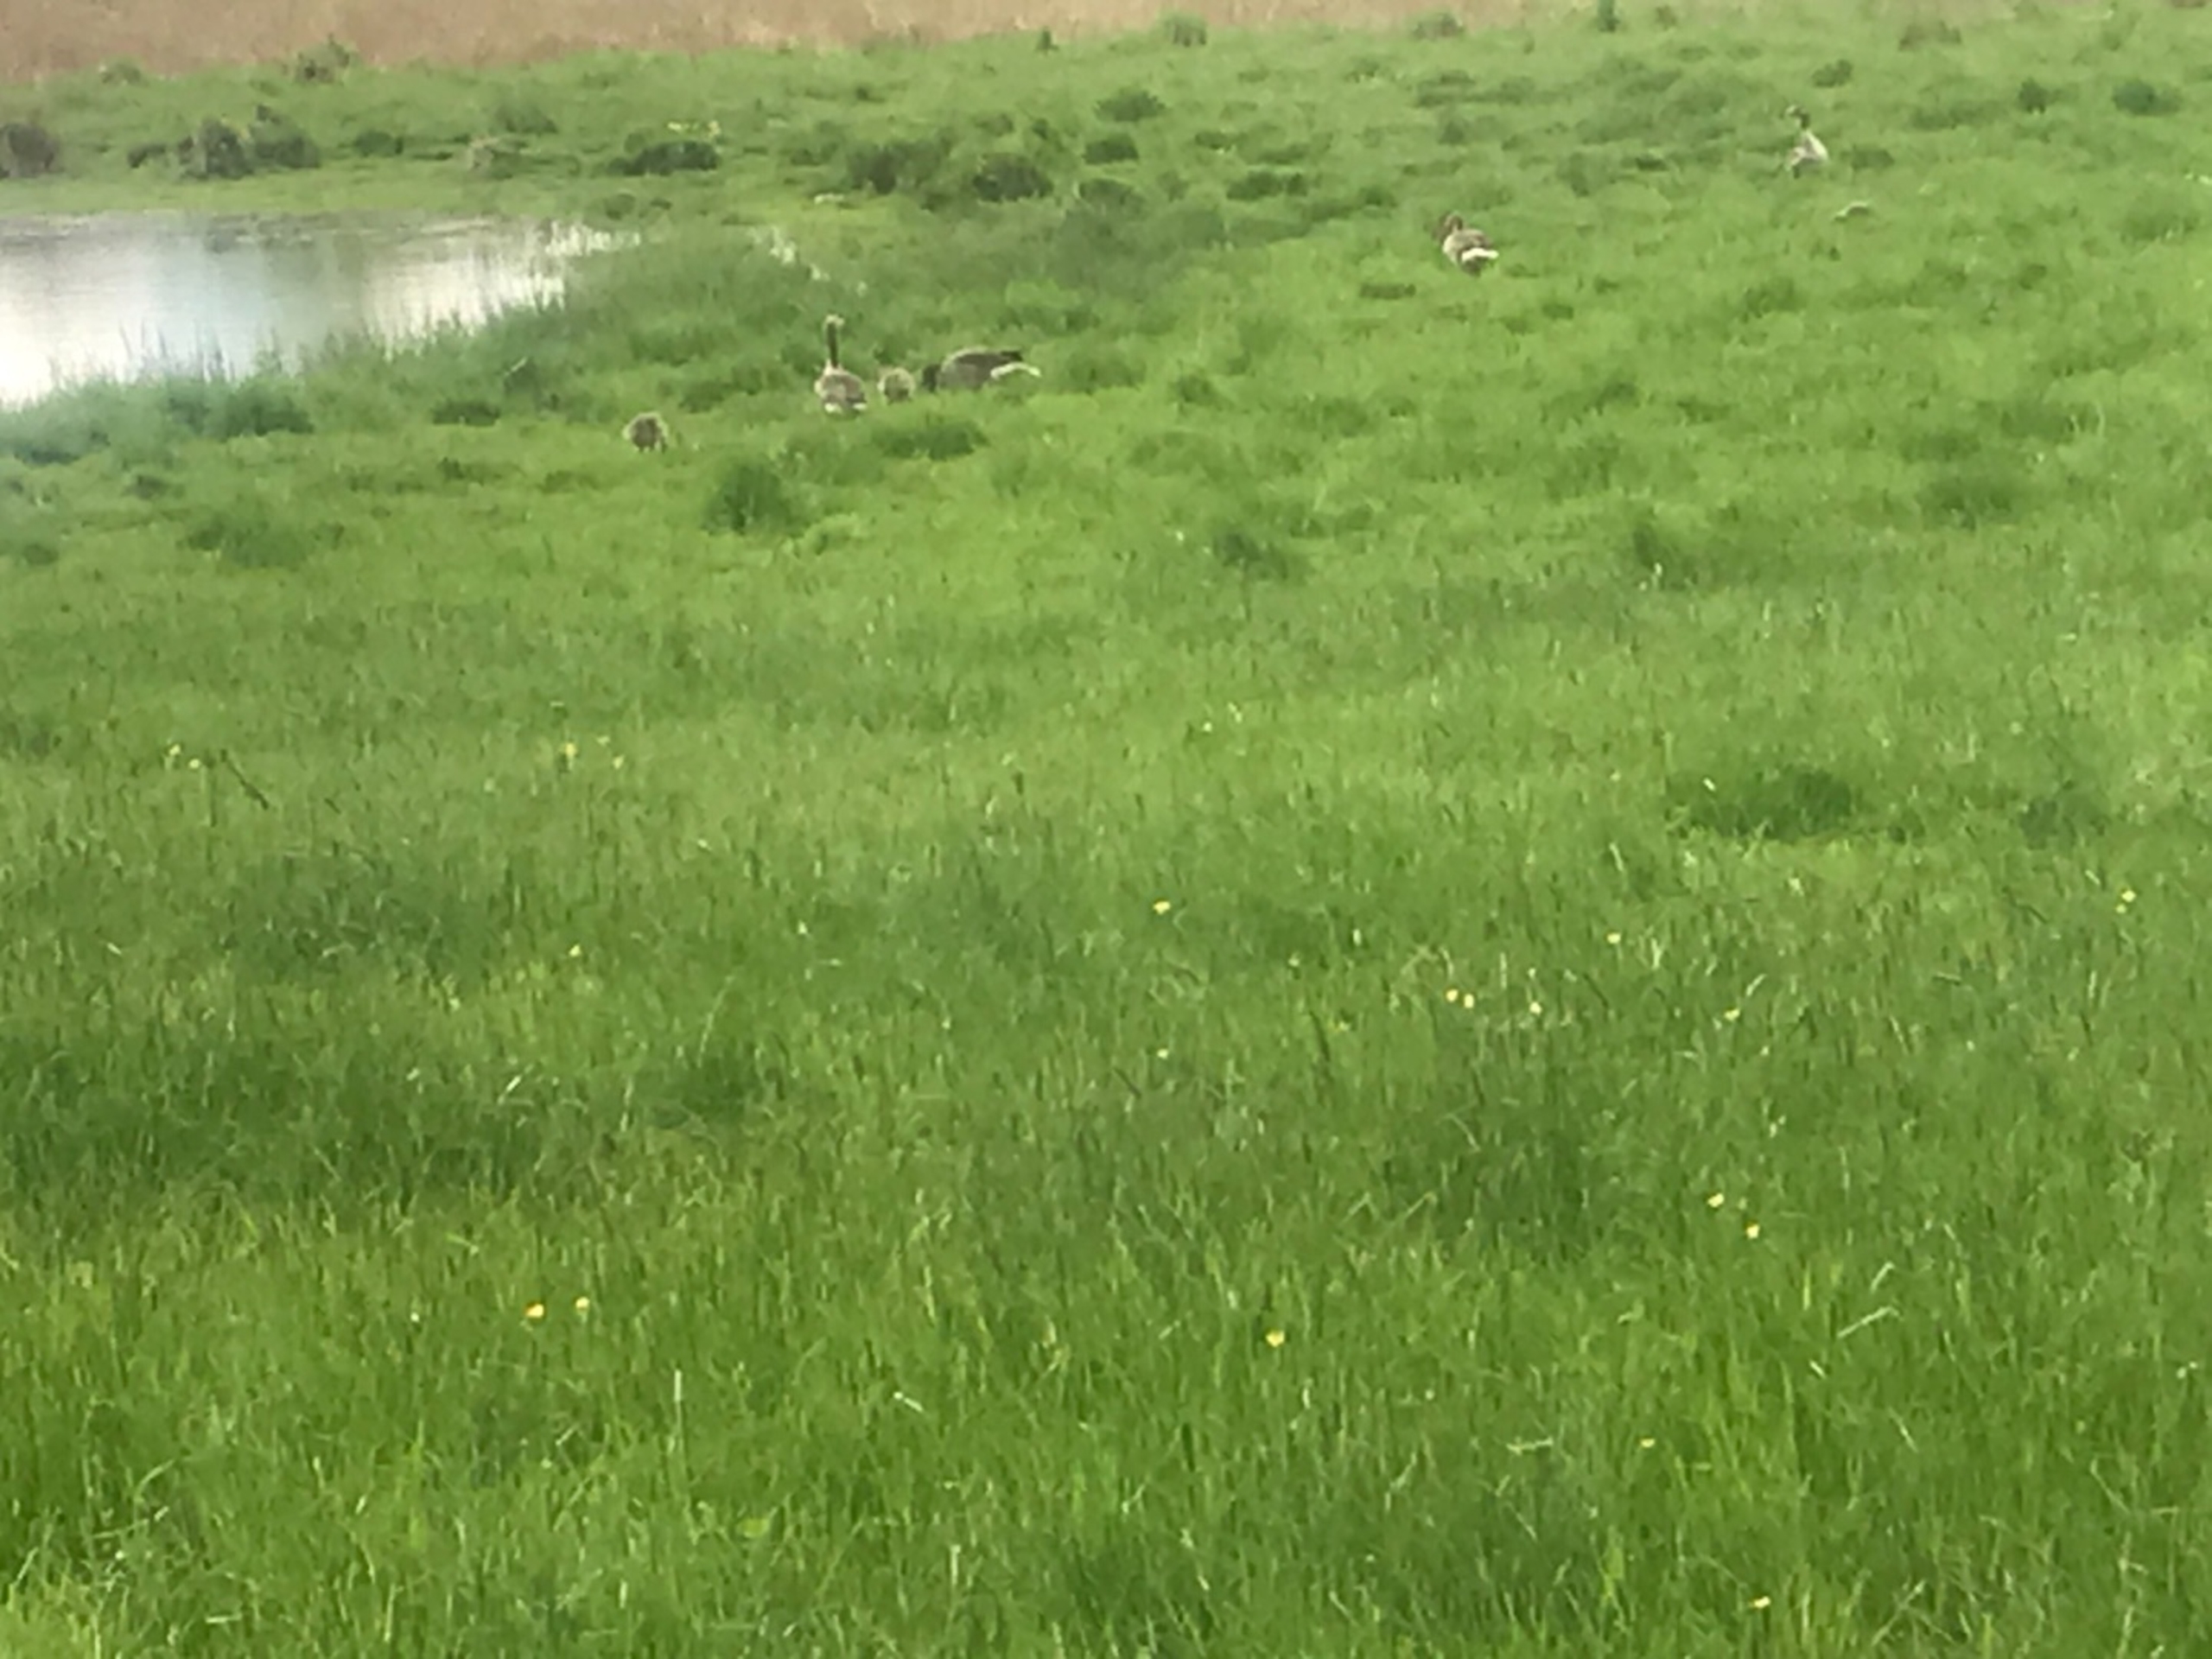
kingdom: Animalia
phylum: Chordata
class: Aves
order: Anseriformes
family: Anatidae
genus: Anser
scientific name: Anser anser
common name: Grågås
